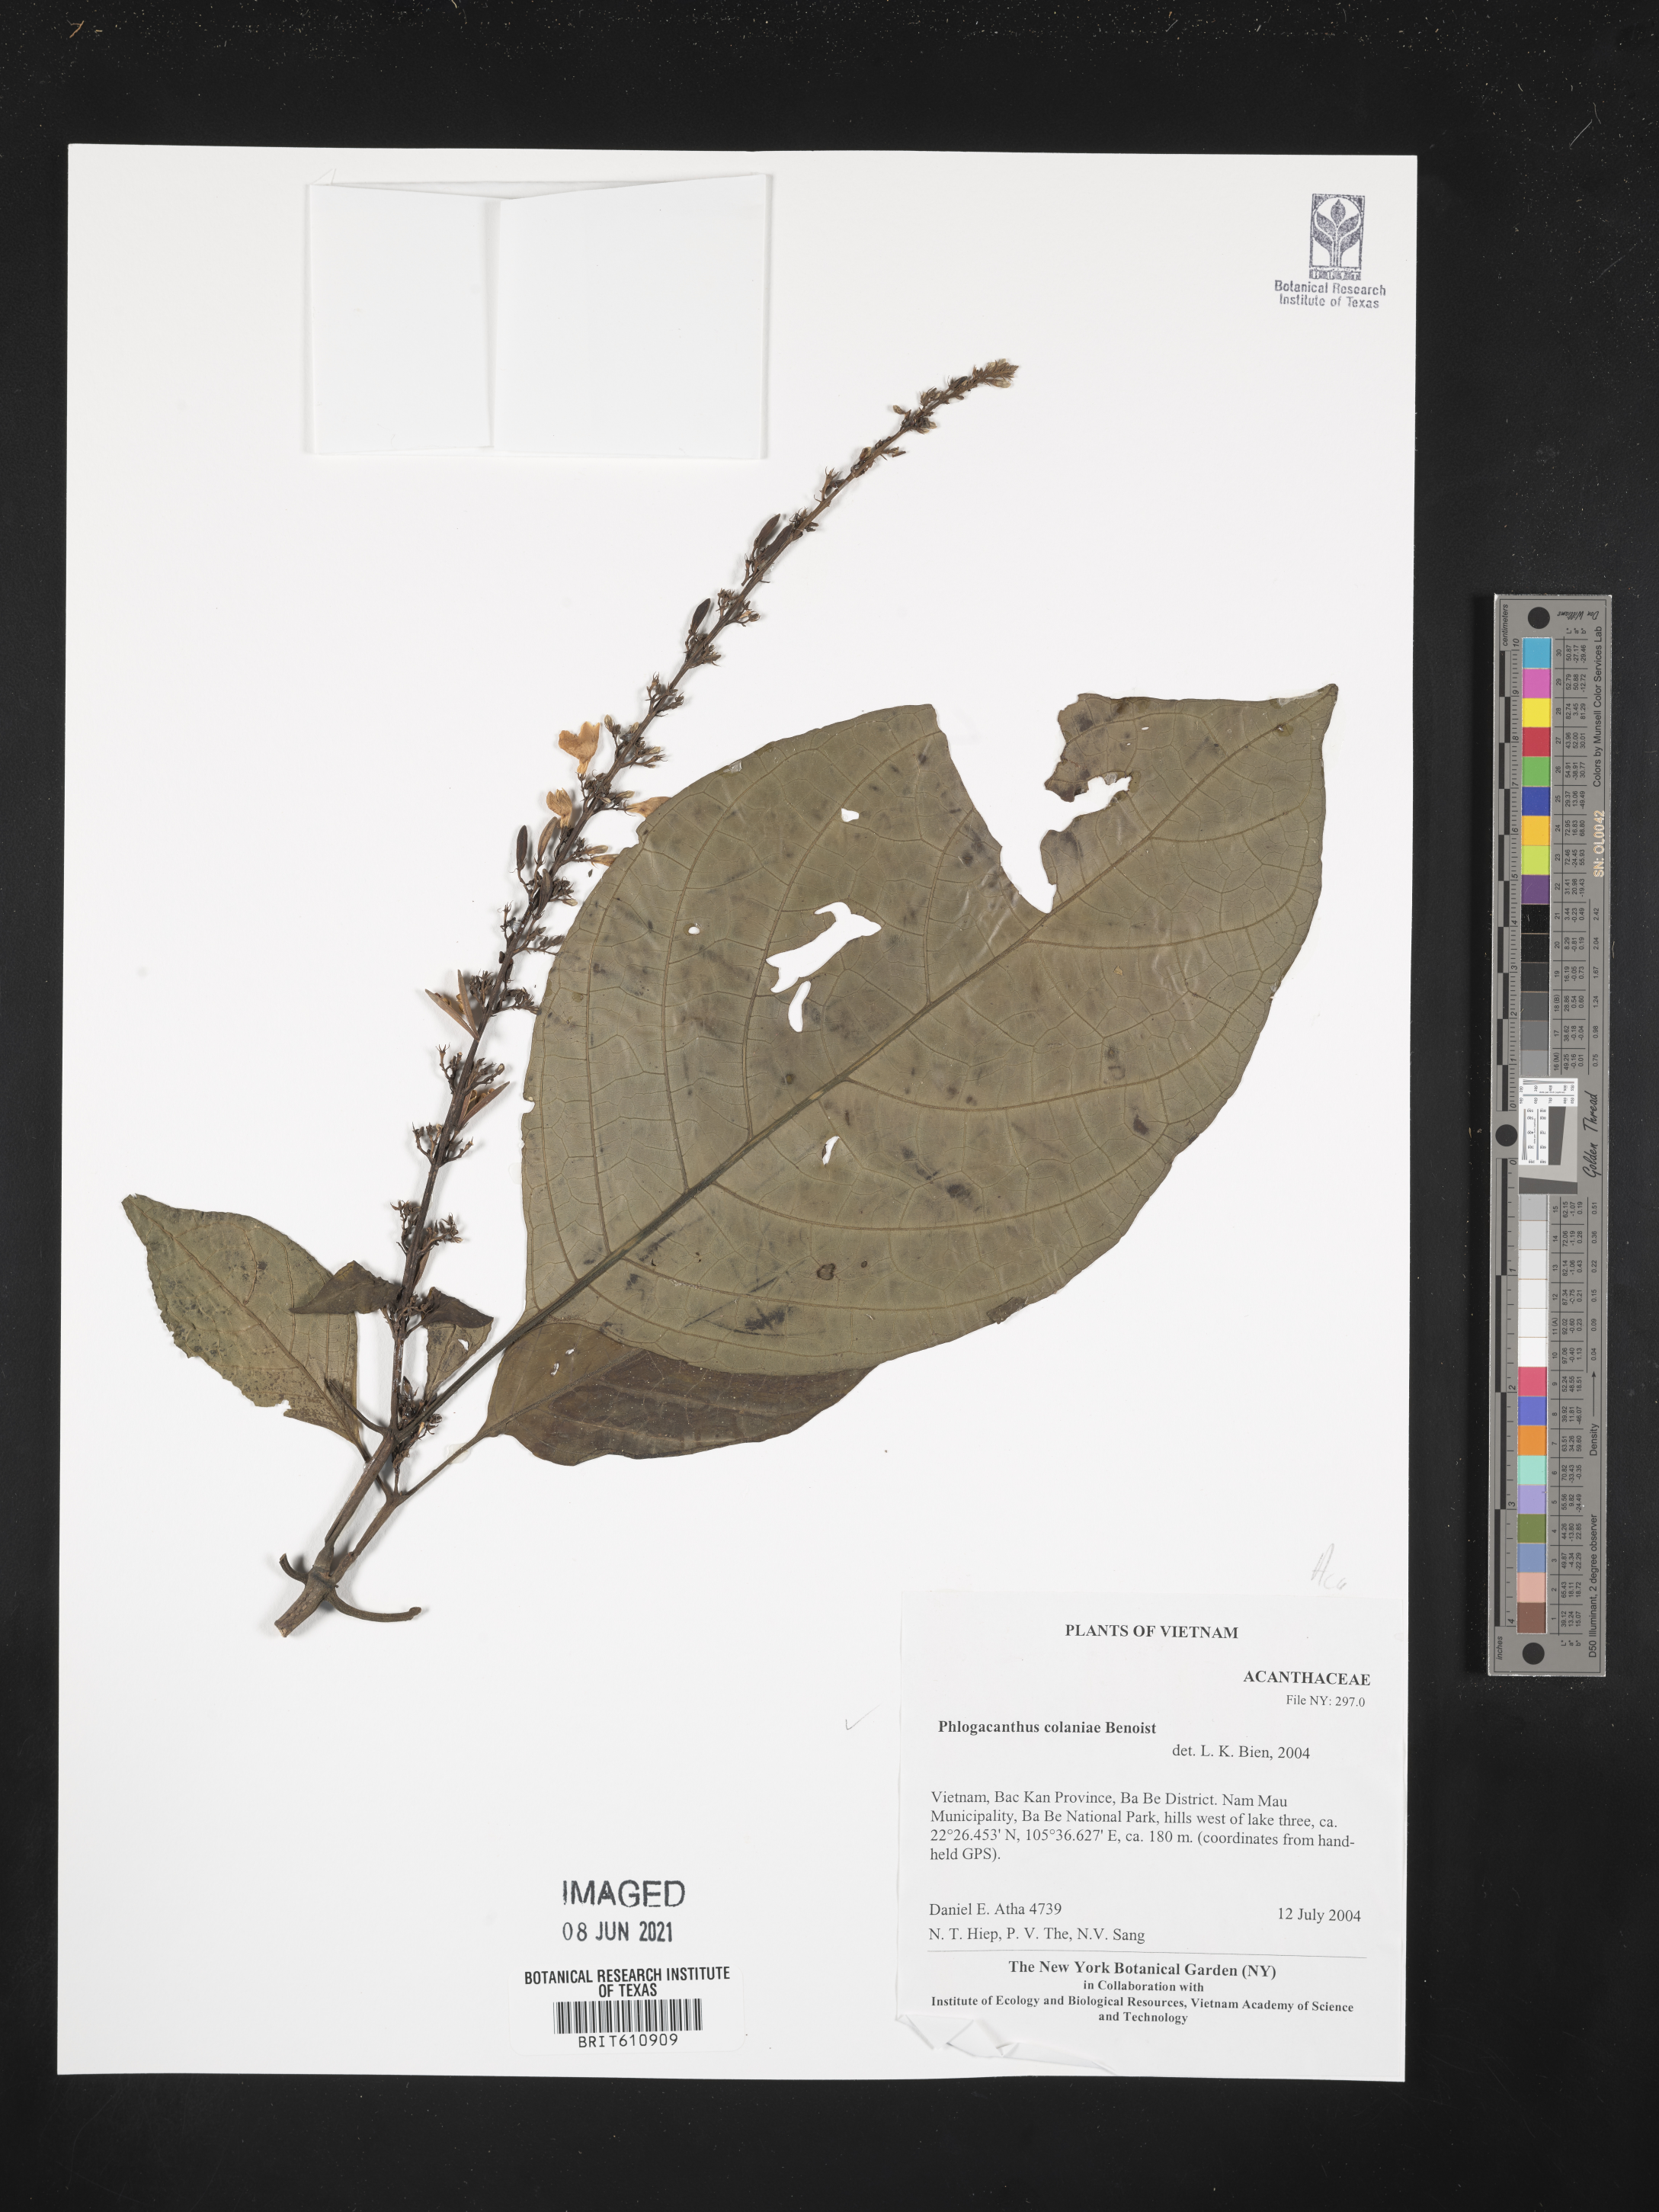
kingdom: Plantae
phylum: Tracheophyta
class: Magnoliopsida
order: Lamiales
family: Acanthaceae
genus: Phlogacanthus
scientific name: Phlogacanthus colaniae
